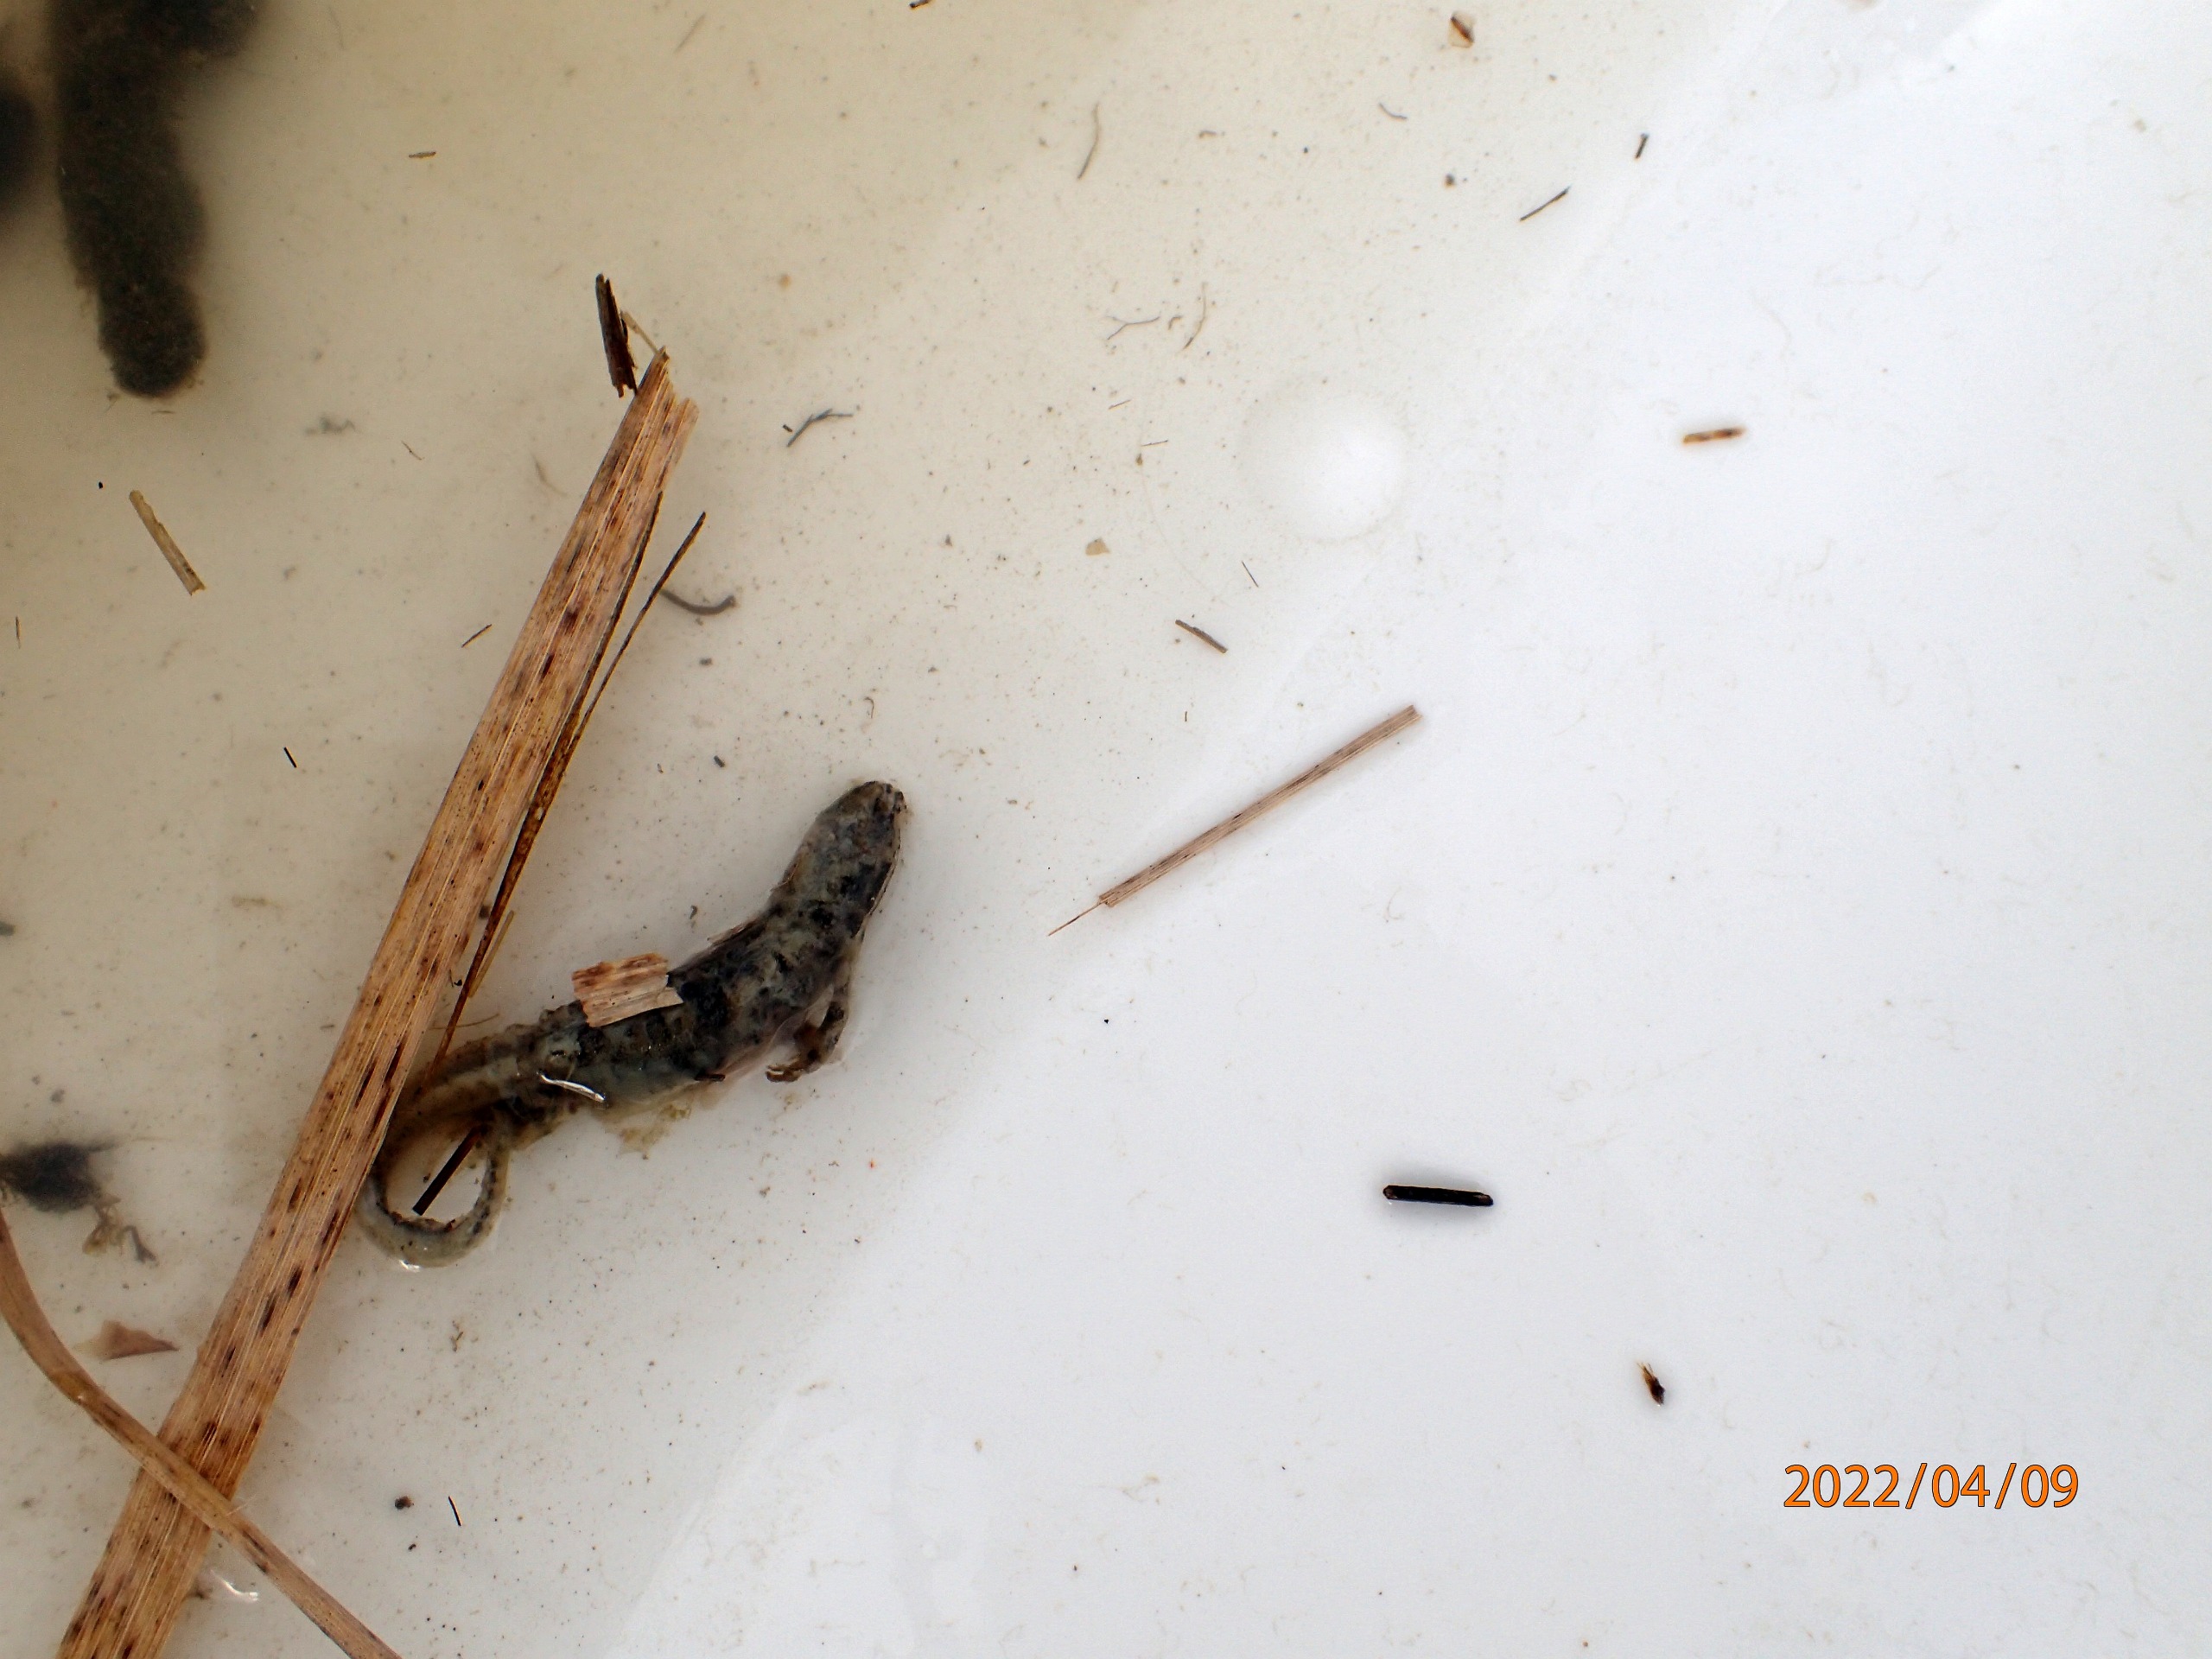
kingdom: Animalia
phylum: Chordata
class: Amphibia
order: Caudata
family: Salamandridae
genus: Lissotriton
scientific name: Lissotriton vulgaris
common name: Lille vandsalamander
